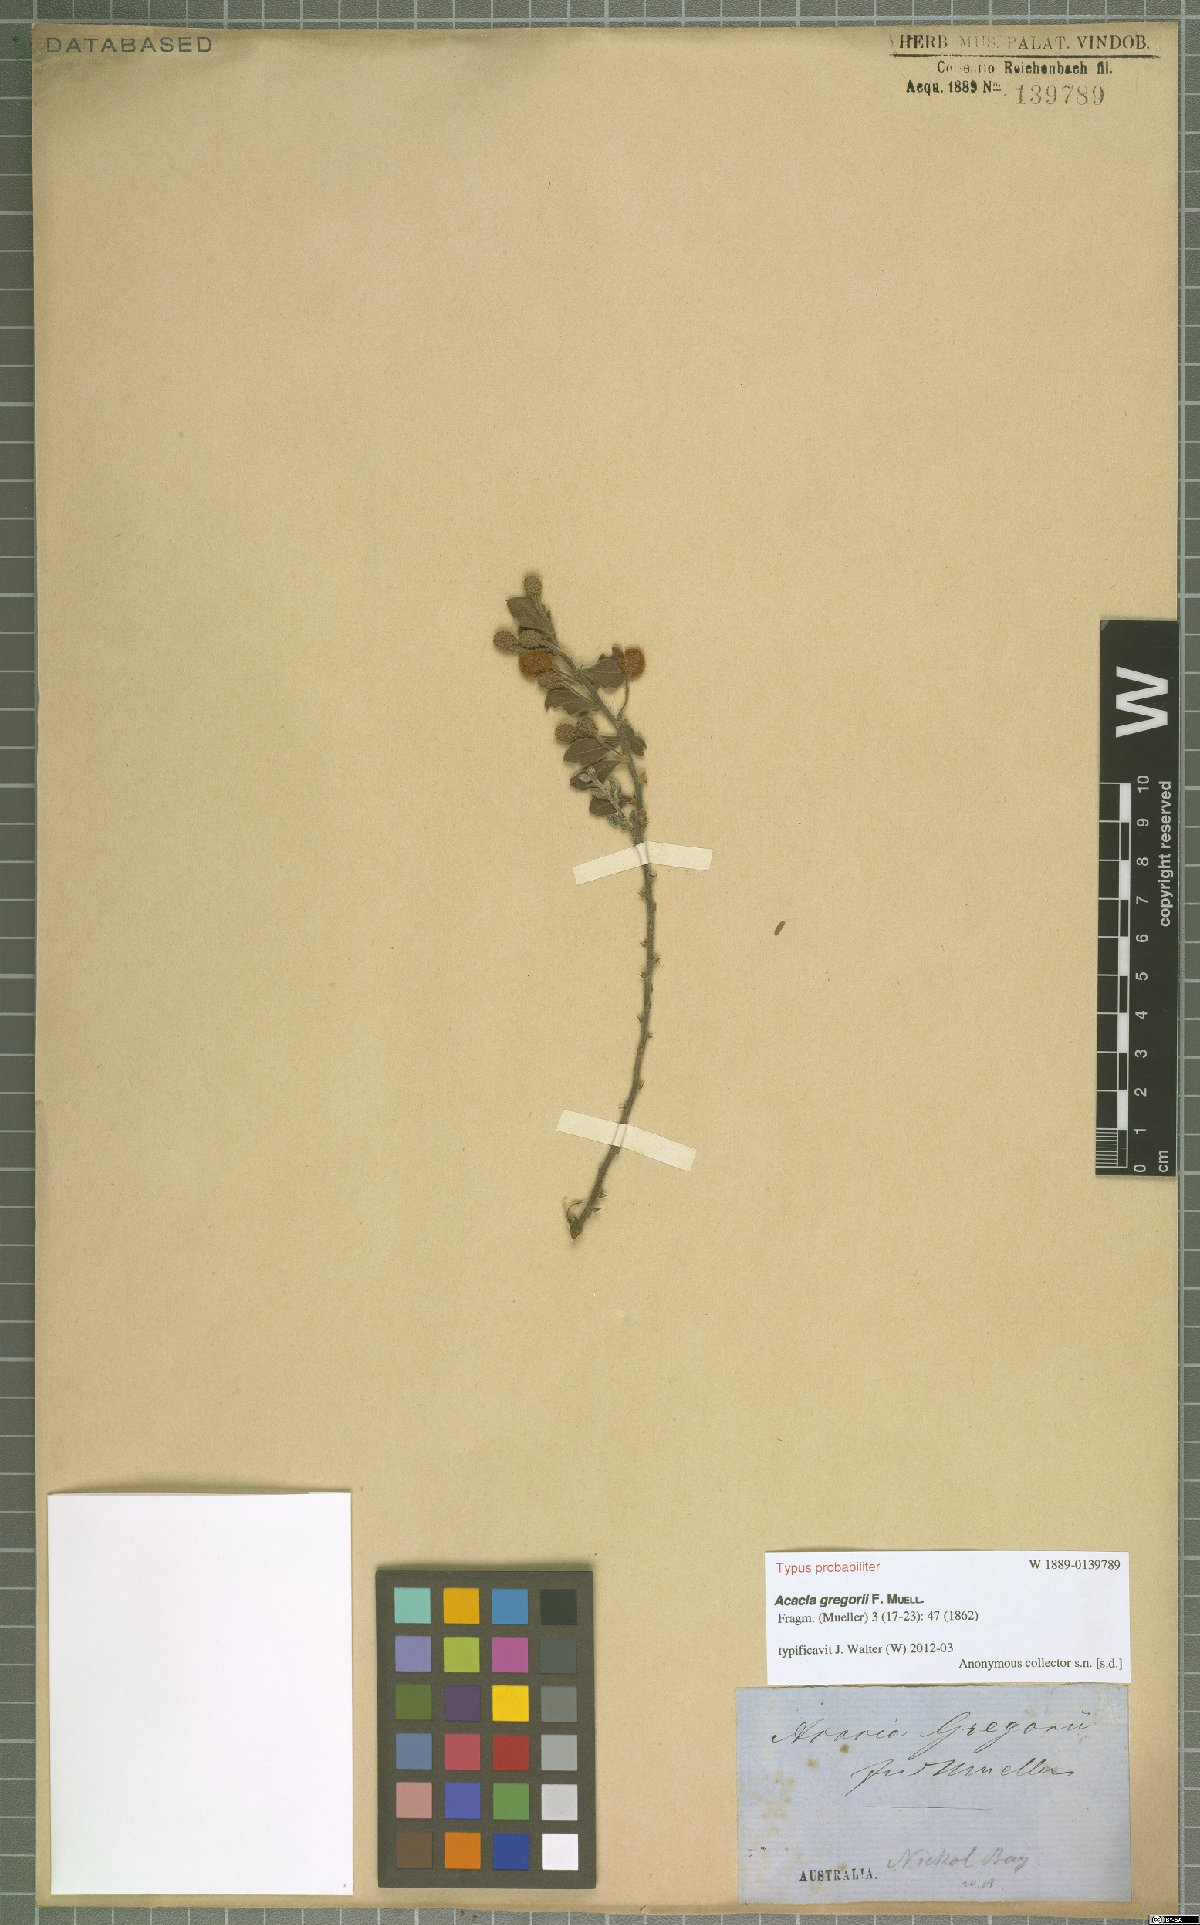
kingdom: Plantae
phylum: Tracheophyta
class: Magnoliopsida
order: Fabales
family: Fabaceae
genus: Acacia
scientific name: Acacia gregorii
